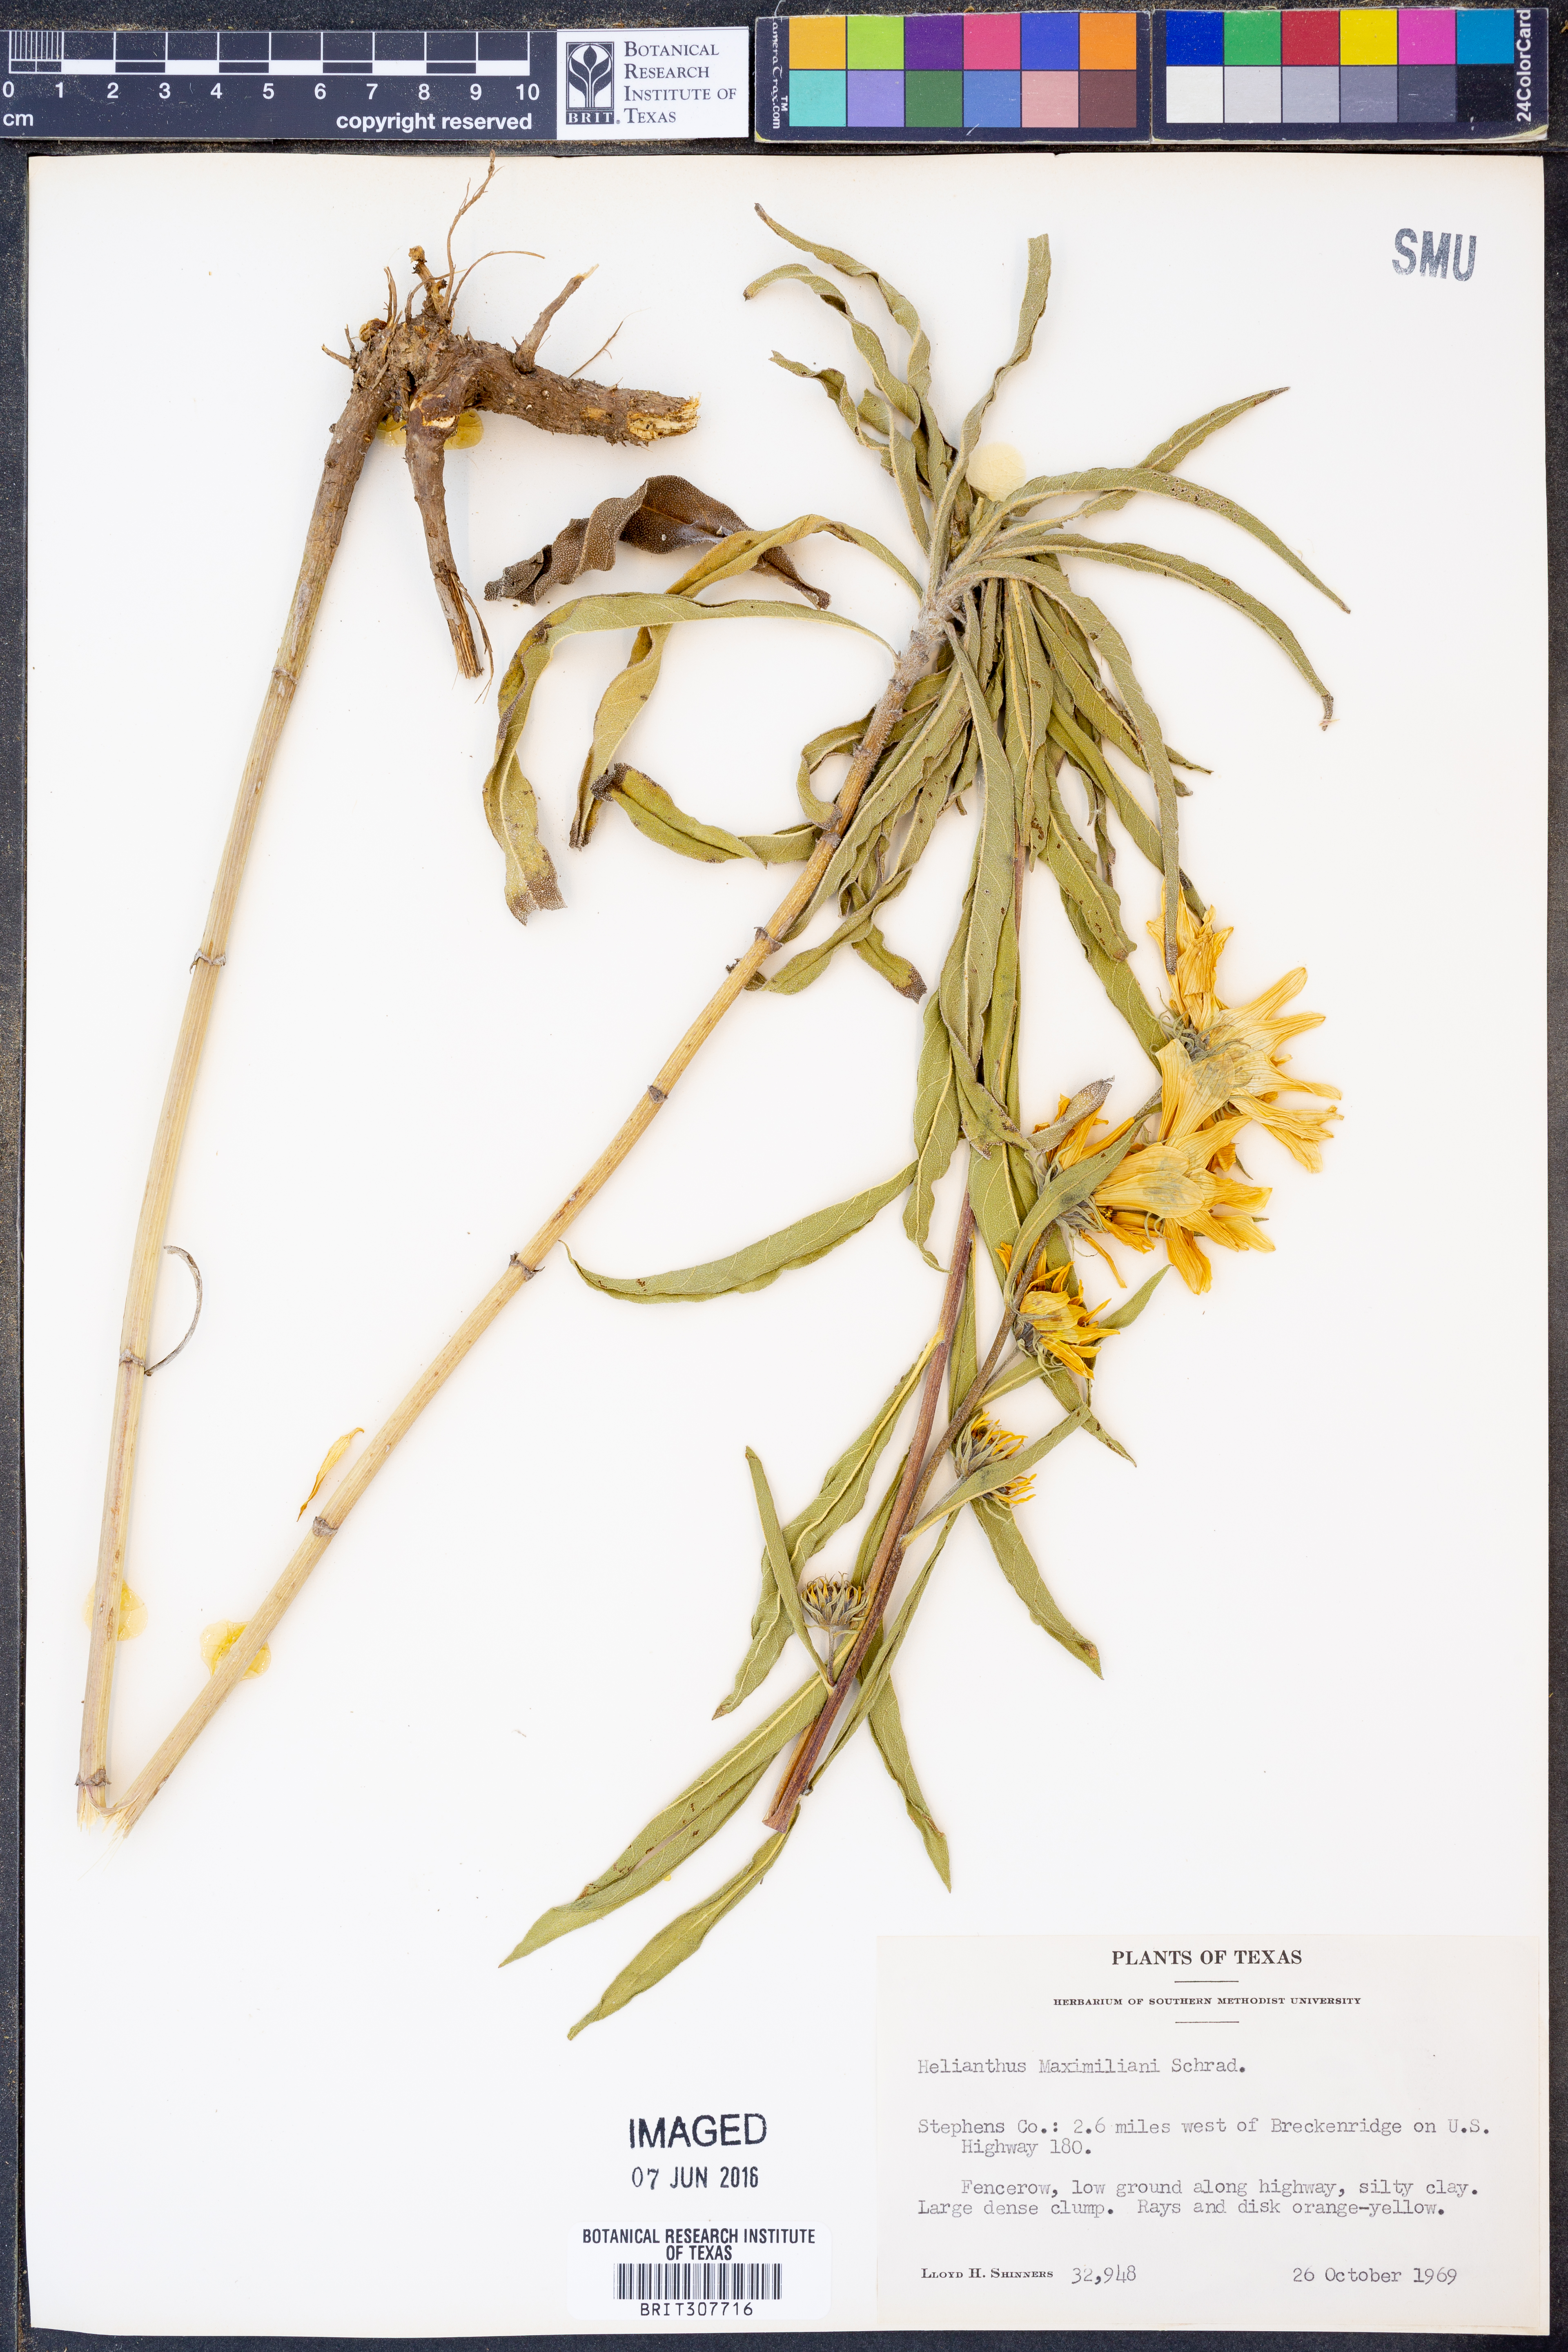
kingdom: Plantae
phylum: Tracheophyta
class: Magnoliopsida
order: Asterales
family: Asteraceae
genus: Helianthus
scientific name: Helianthus maximiliani
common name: Maximilian's sunflower
